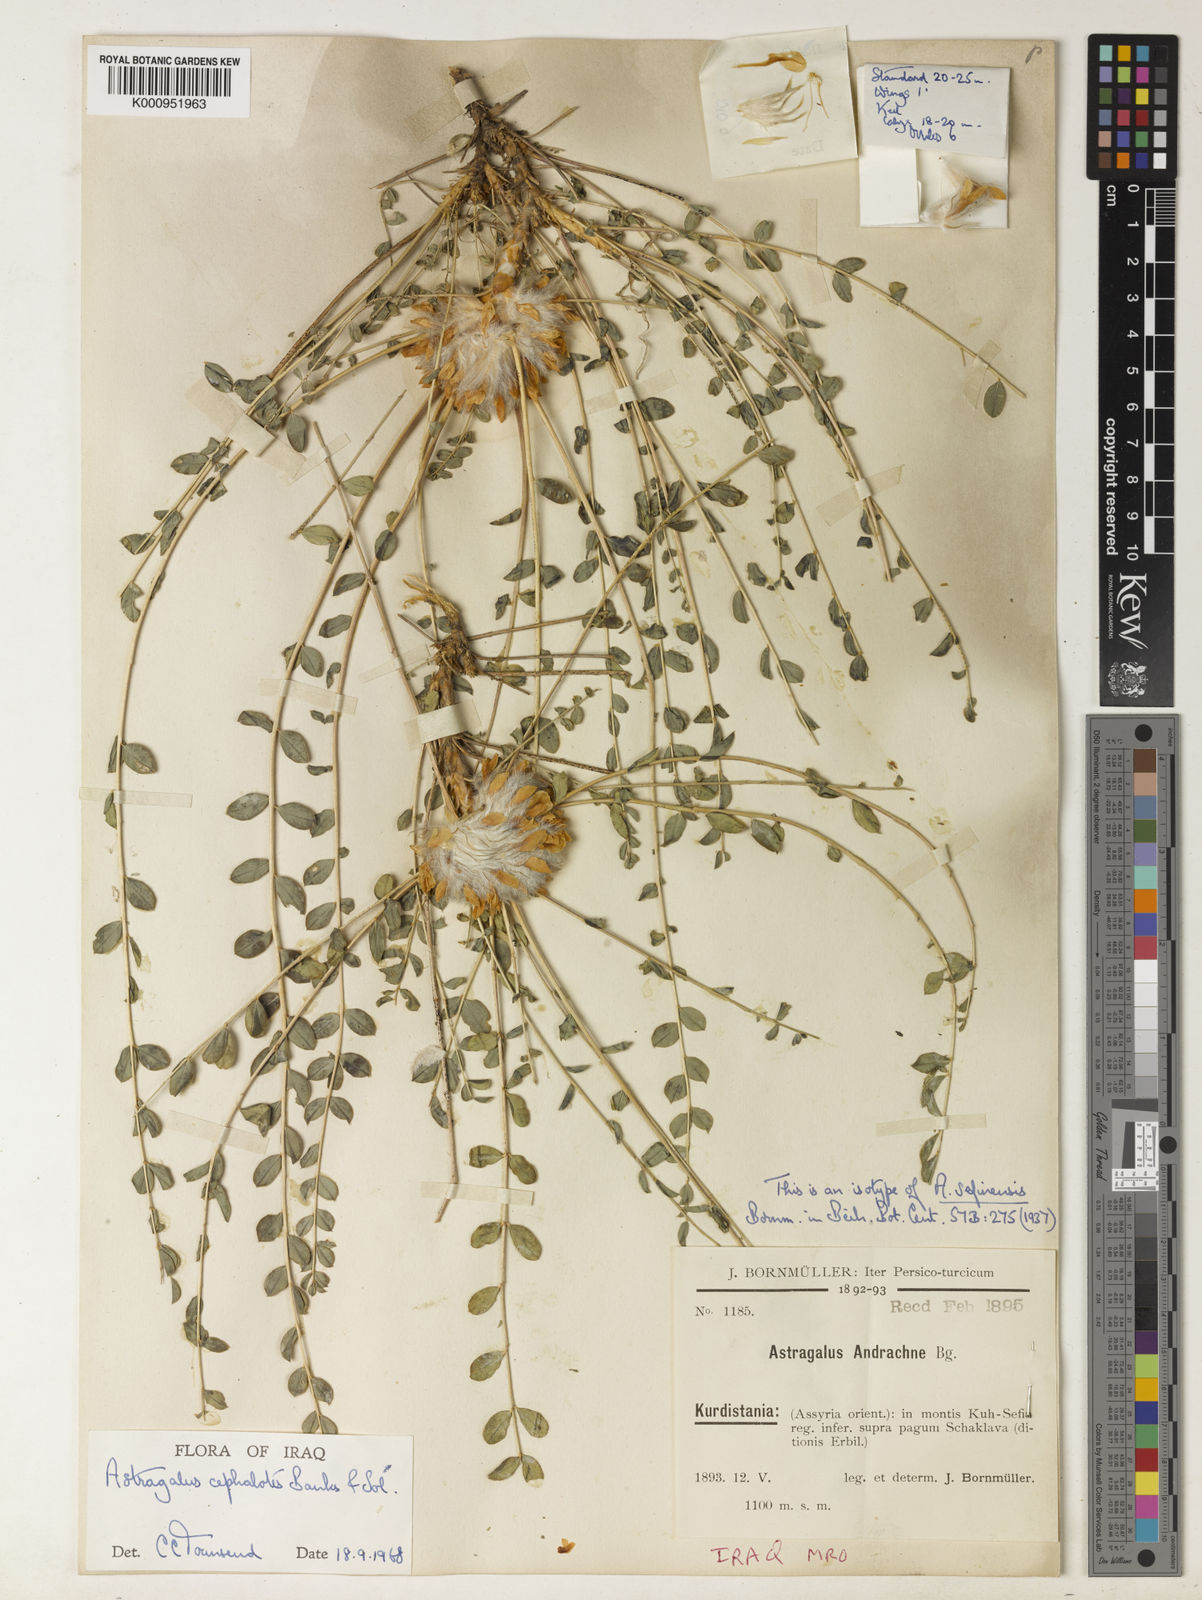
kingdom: Plantae
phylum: Tracheophyta
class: Magnoliopsida
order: Fabales
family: Fabaceae
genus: Astragalus
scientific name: Astragalus cephalotes
